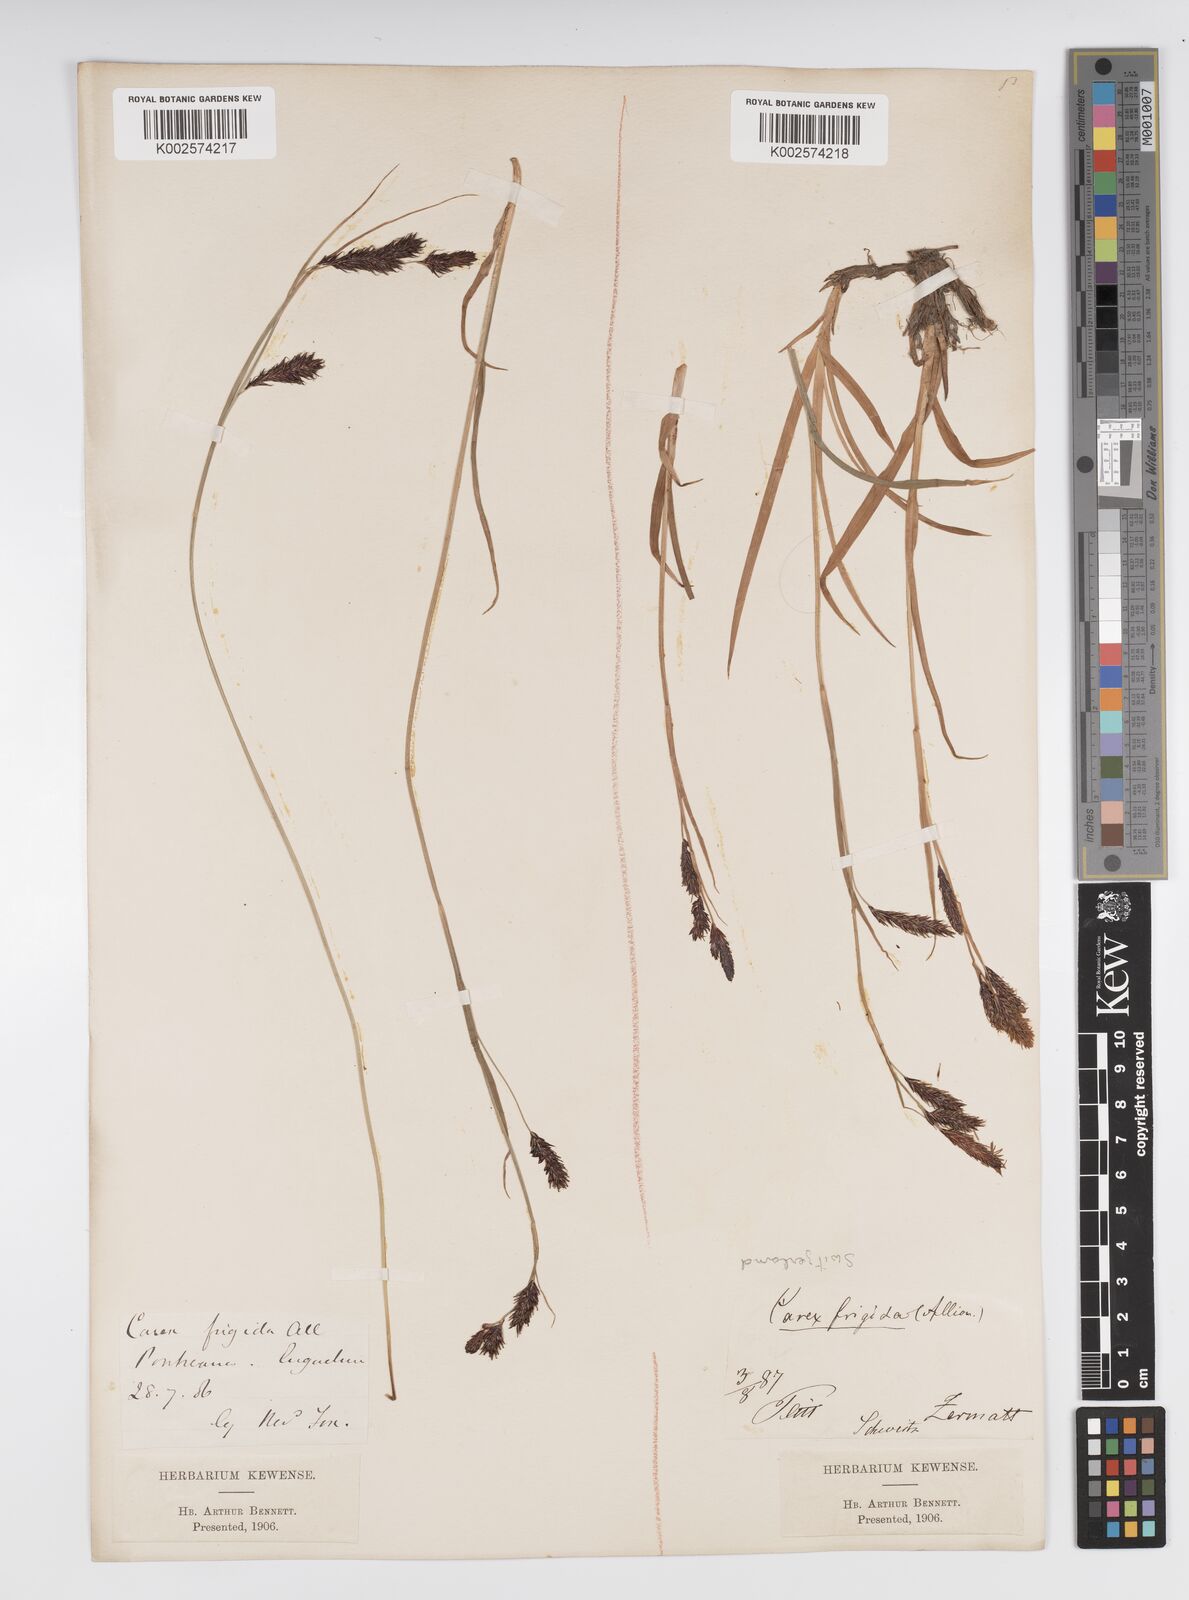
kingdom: Plantae
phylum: Tracheophyta
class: Liliopsida
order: Poales
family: Cyperaceae
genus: Carex
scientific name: Carex frigida
